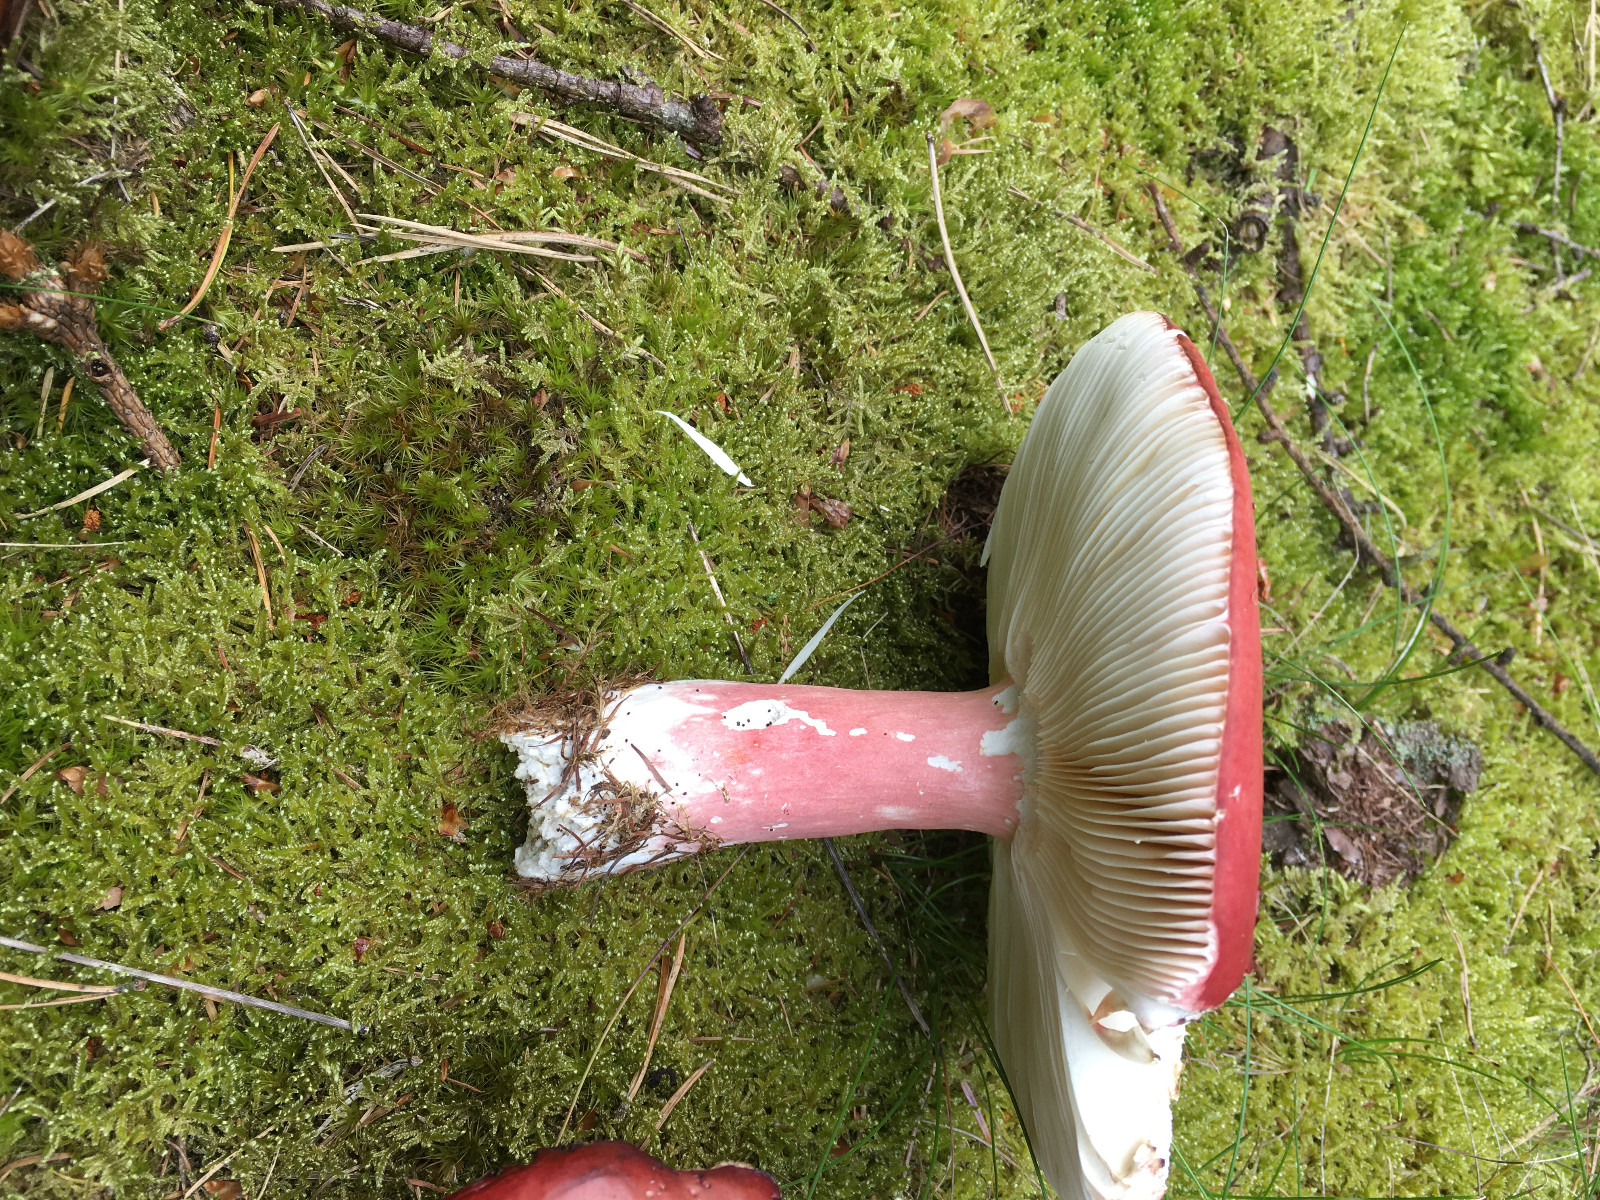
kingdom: Fungi
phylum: Basidiomycota
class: Agaricomycetes
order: Russulales
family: Russulaceae
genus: Russula
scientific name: Russula paludosa
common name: prægtig skørhat
